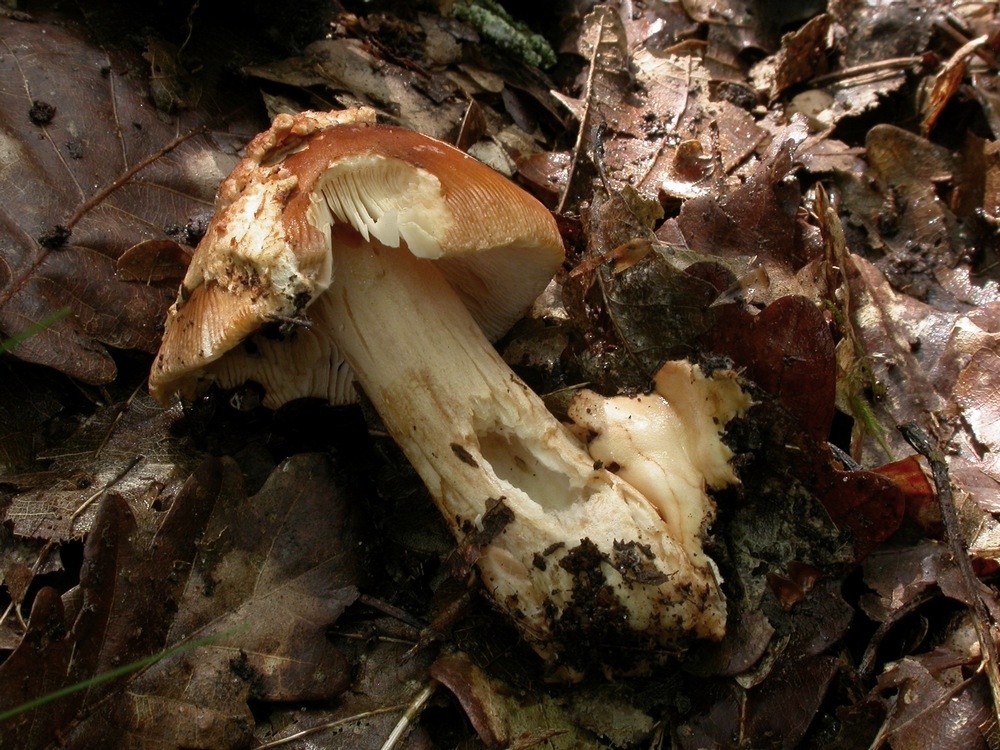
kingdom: Fungi
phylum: Basidiomycota
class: Agaricomycetes
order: Agaricales
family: Amanitaceae
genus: Amanita
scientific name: Amanita fulva
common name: brun kam-fluesvamp
